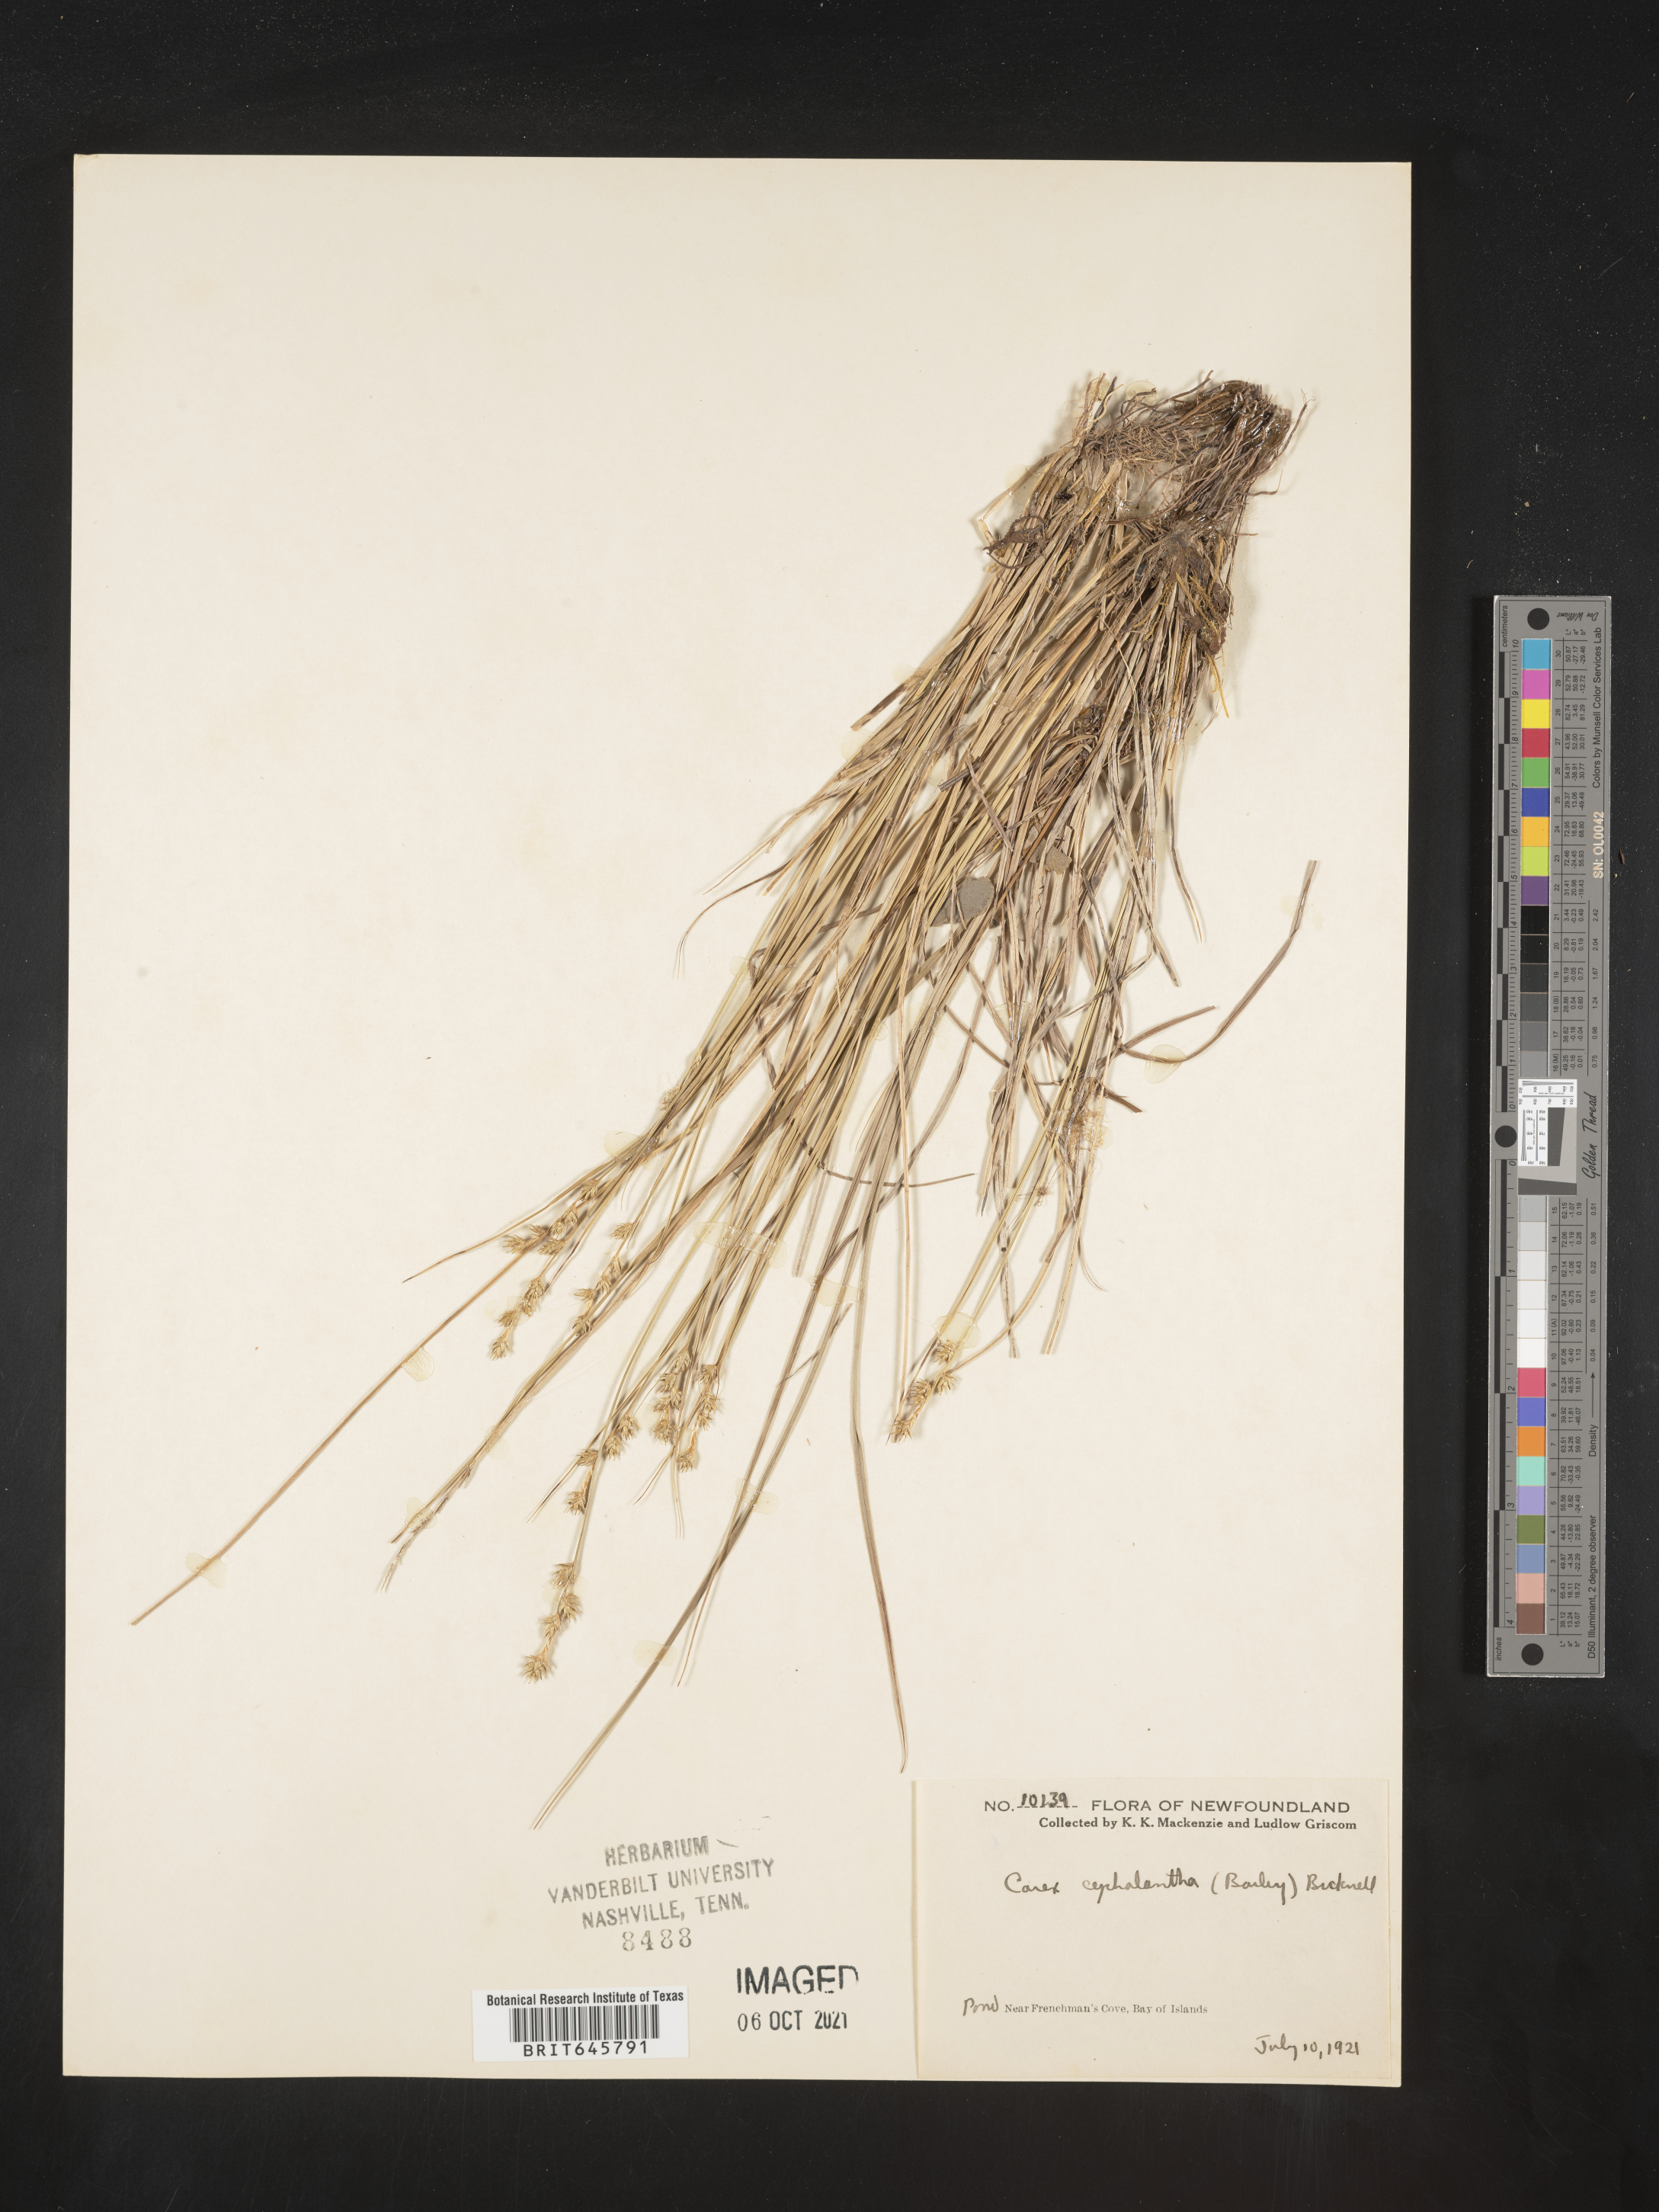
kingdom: Plantae
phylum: Tracheophyta
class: Liliopsida
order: Poales
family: Cyperaceae
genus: Carex
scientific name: Carex echinata
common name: Star sedge
